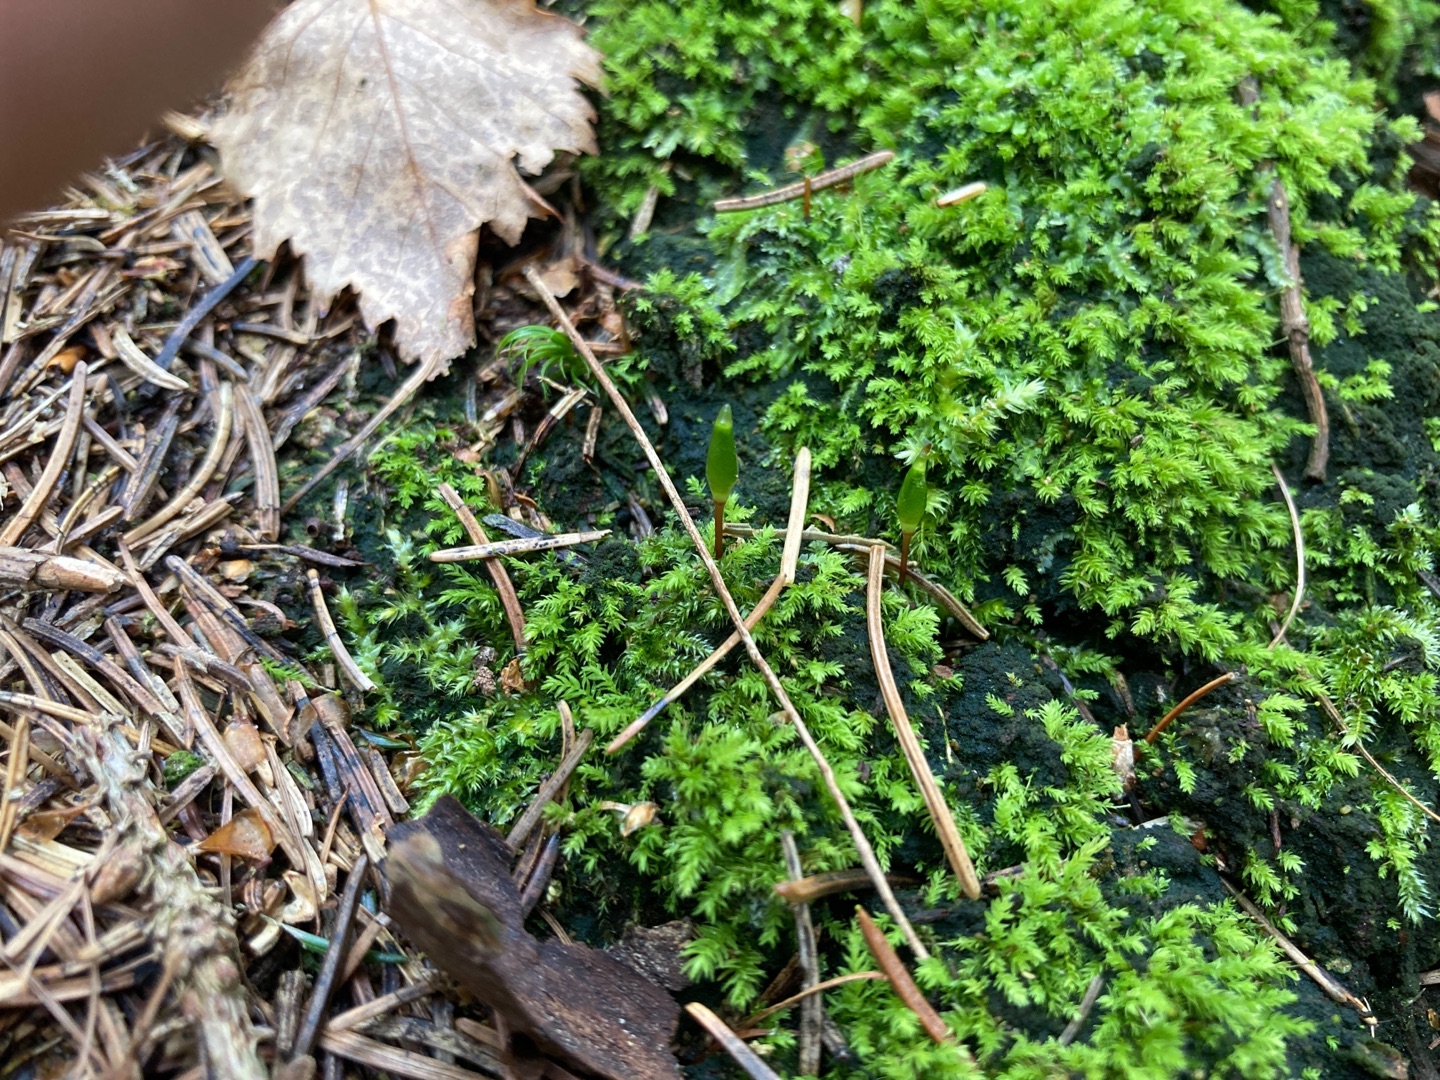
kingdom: Plantae
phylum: Bryophyta
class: Bryopsida
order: Buxbaumiales
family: Buxbaumiaceae
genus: Buxbaumia
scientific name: Buxbaumia viridis
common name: Grøn buxbaumia
